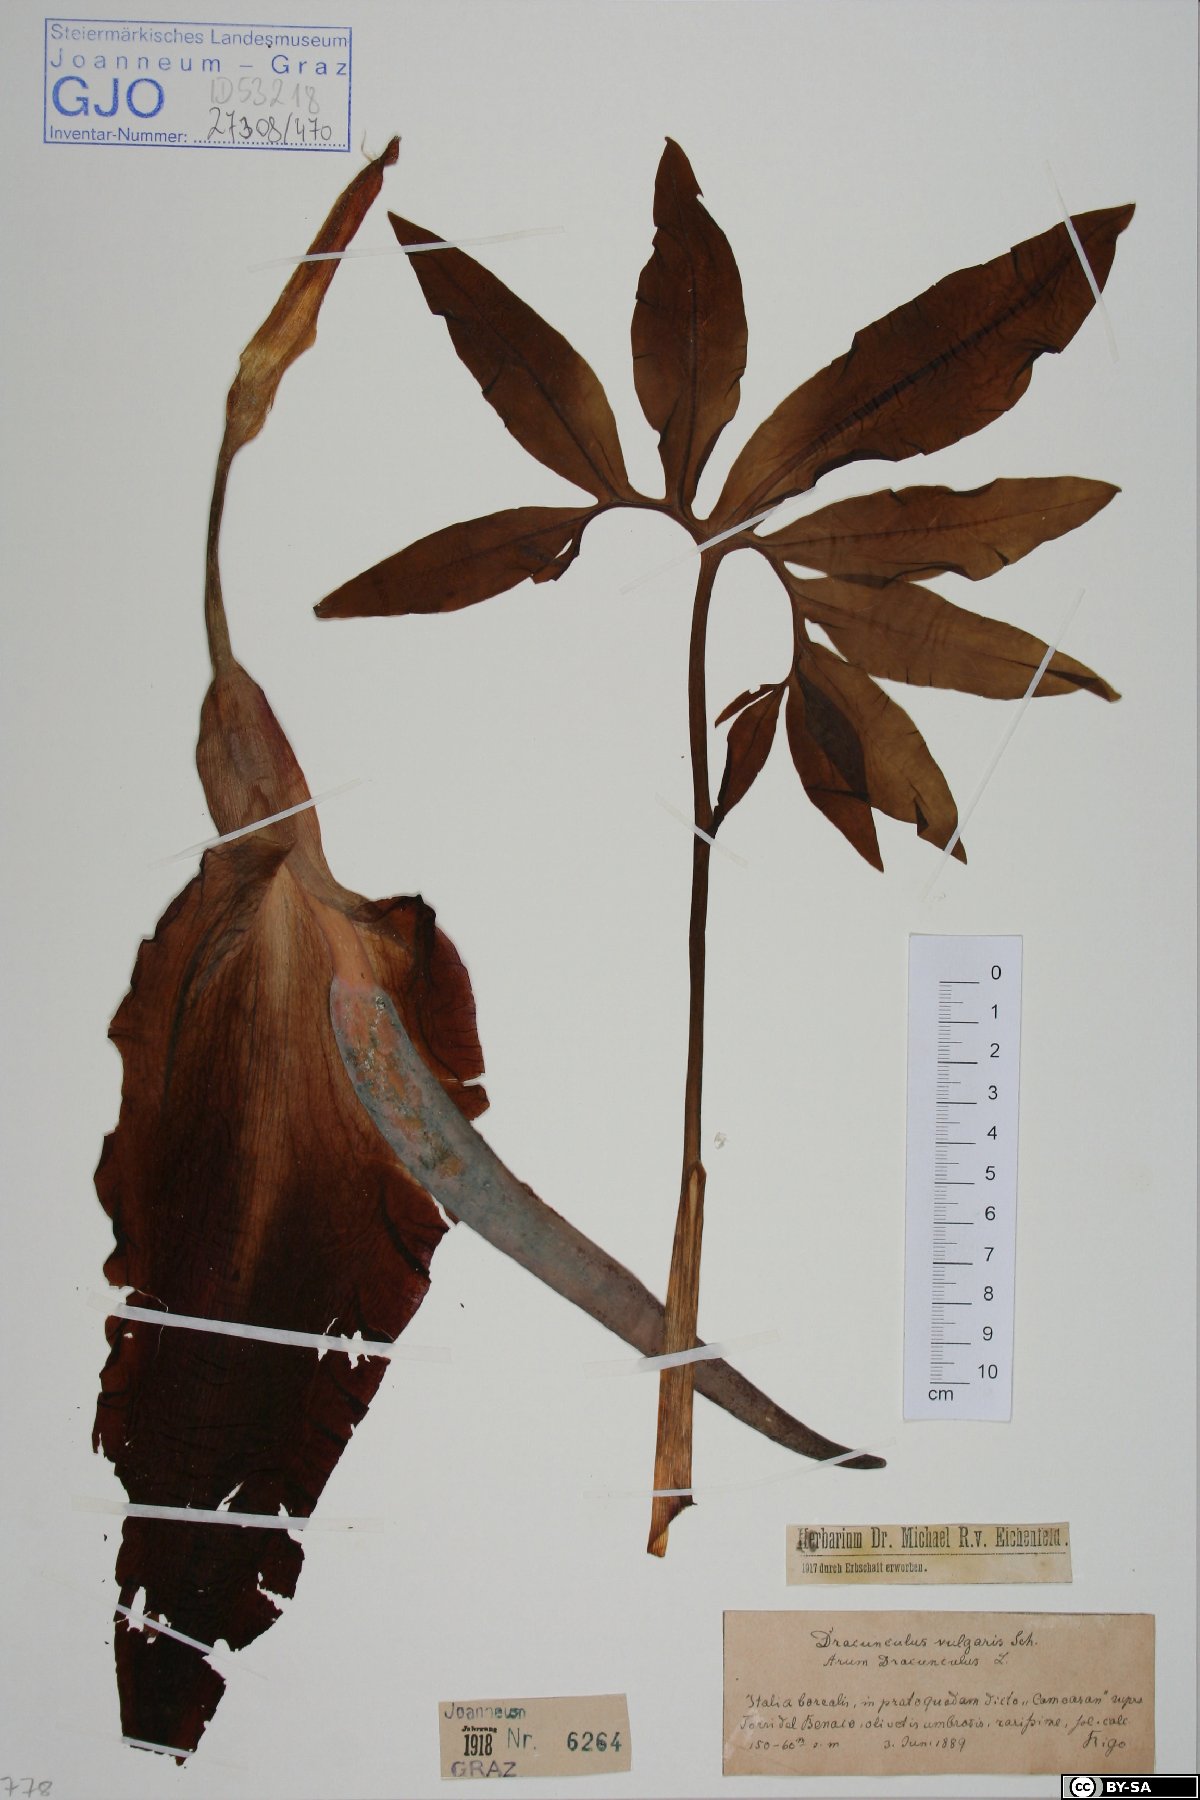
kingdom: Plantae
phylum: Tracheophyta
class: Liliopsida
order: Alismatales
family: Araceae
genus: Dracunculus
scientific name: Dracunculus vulgaris
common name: Dragon arum
